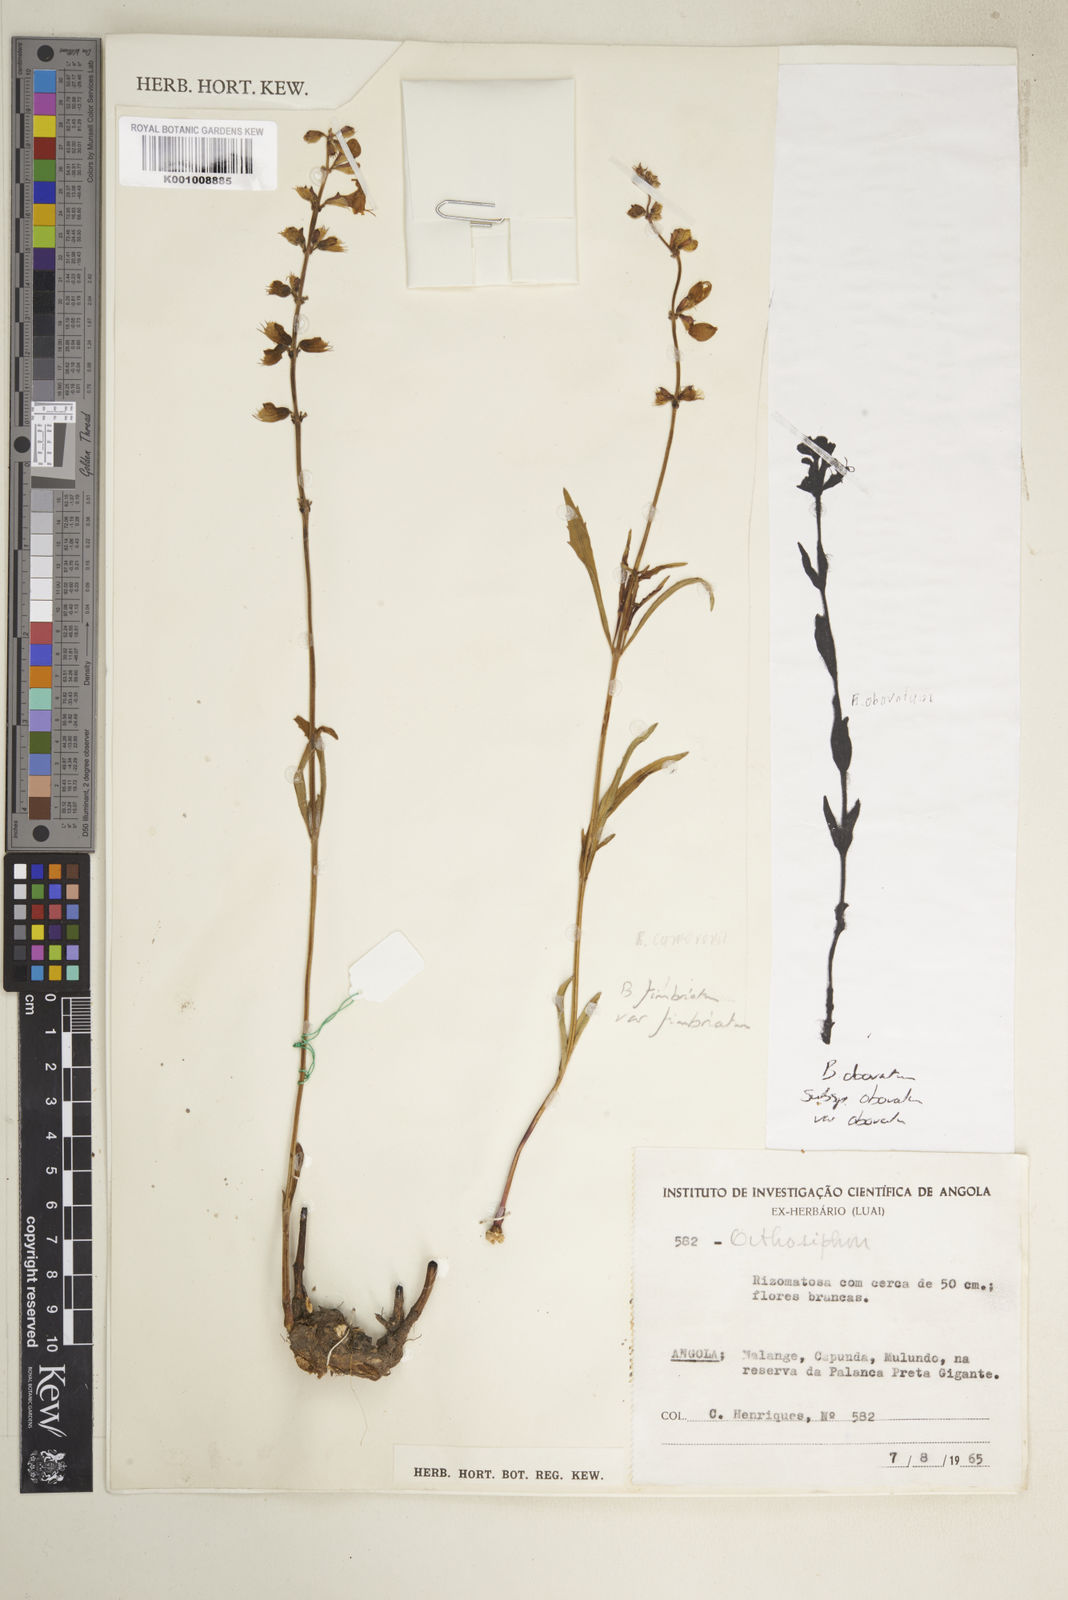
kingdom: Plantae
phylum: Tracheophyta
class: Magnoliopsida
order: Lamiales
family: Lamiaceae
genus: Ocimum
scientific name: Ocimum fimbriatum
